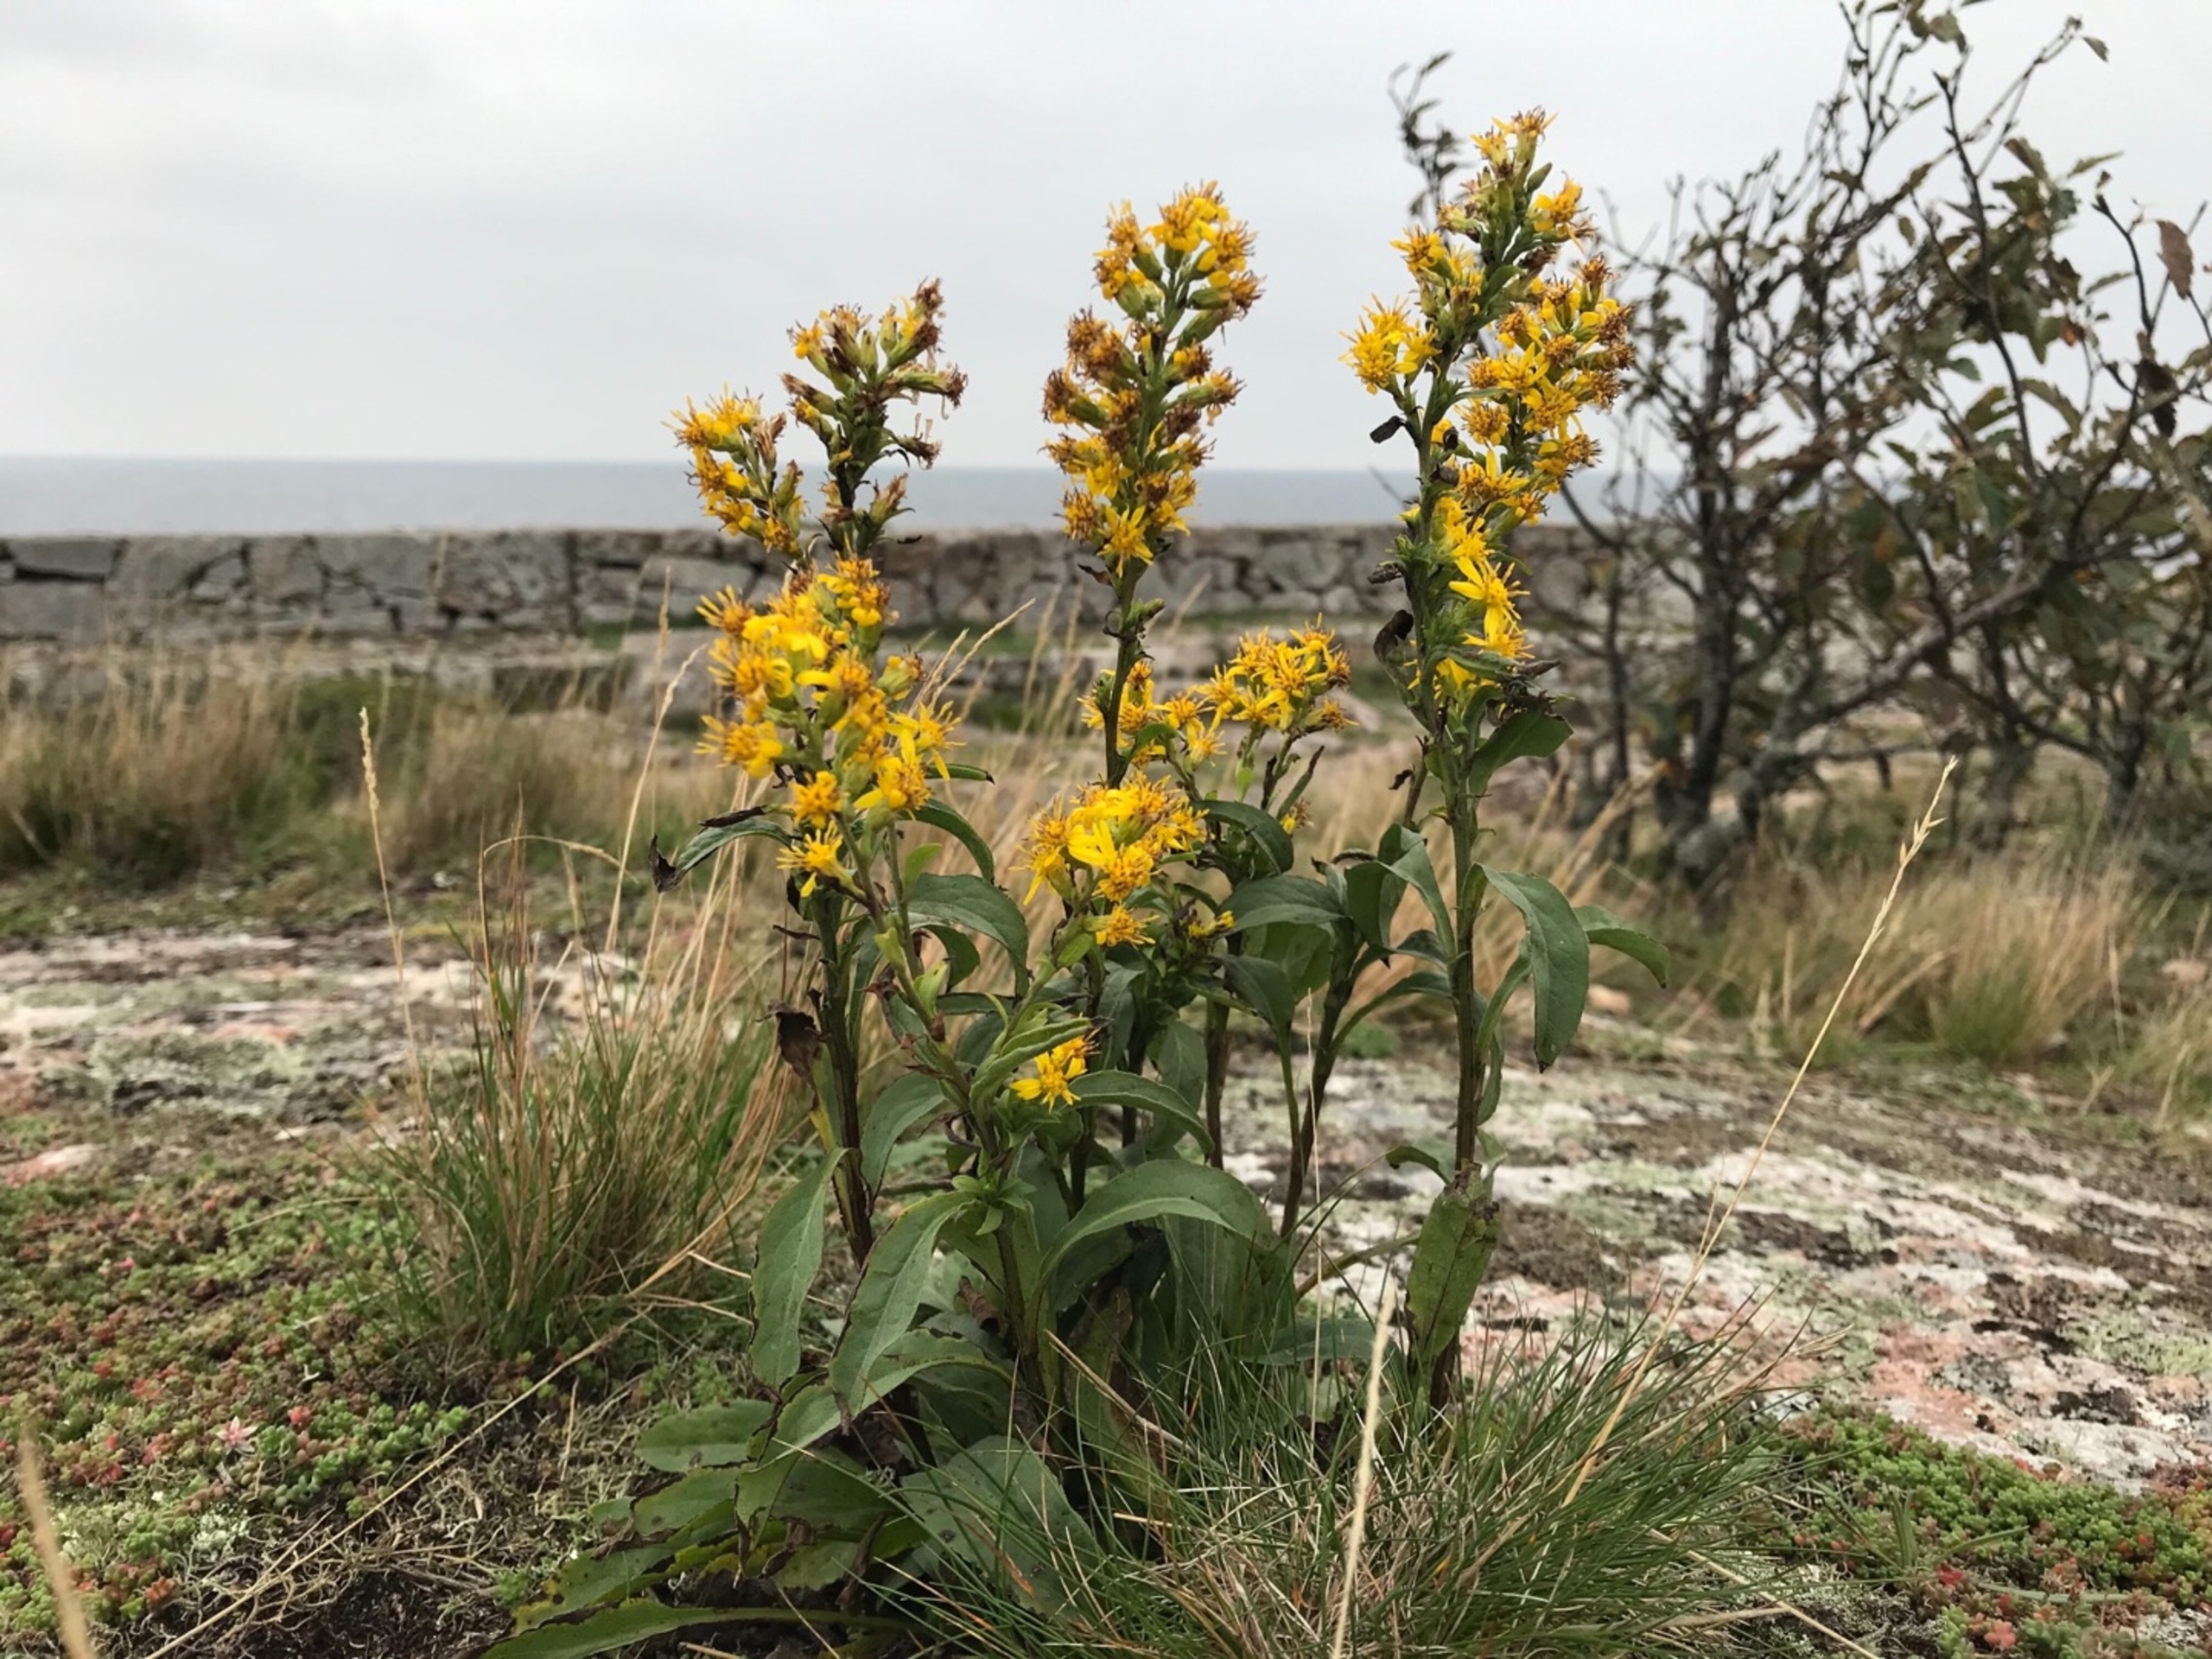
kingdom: Plantae
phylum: Tracheophyta
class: Magnoliopsida
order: Asterales
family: Asteraceae
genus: Solidago
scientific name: Solidago virgaurea
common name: Almindelig gyldenris
